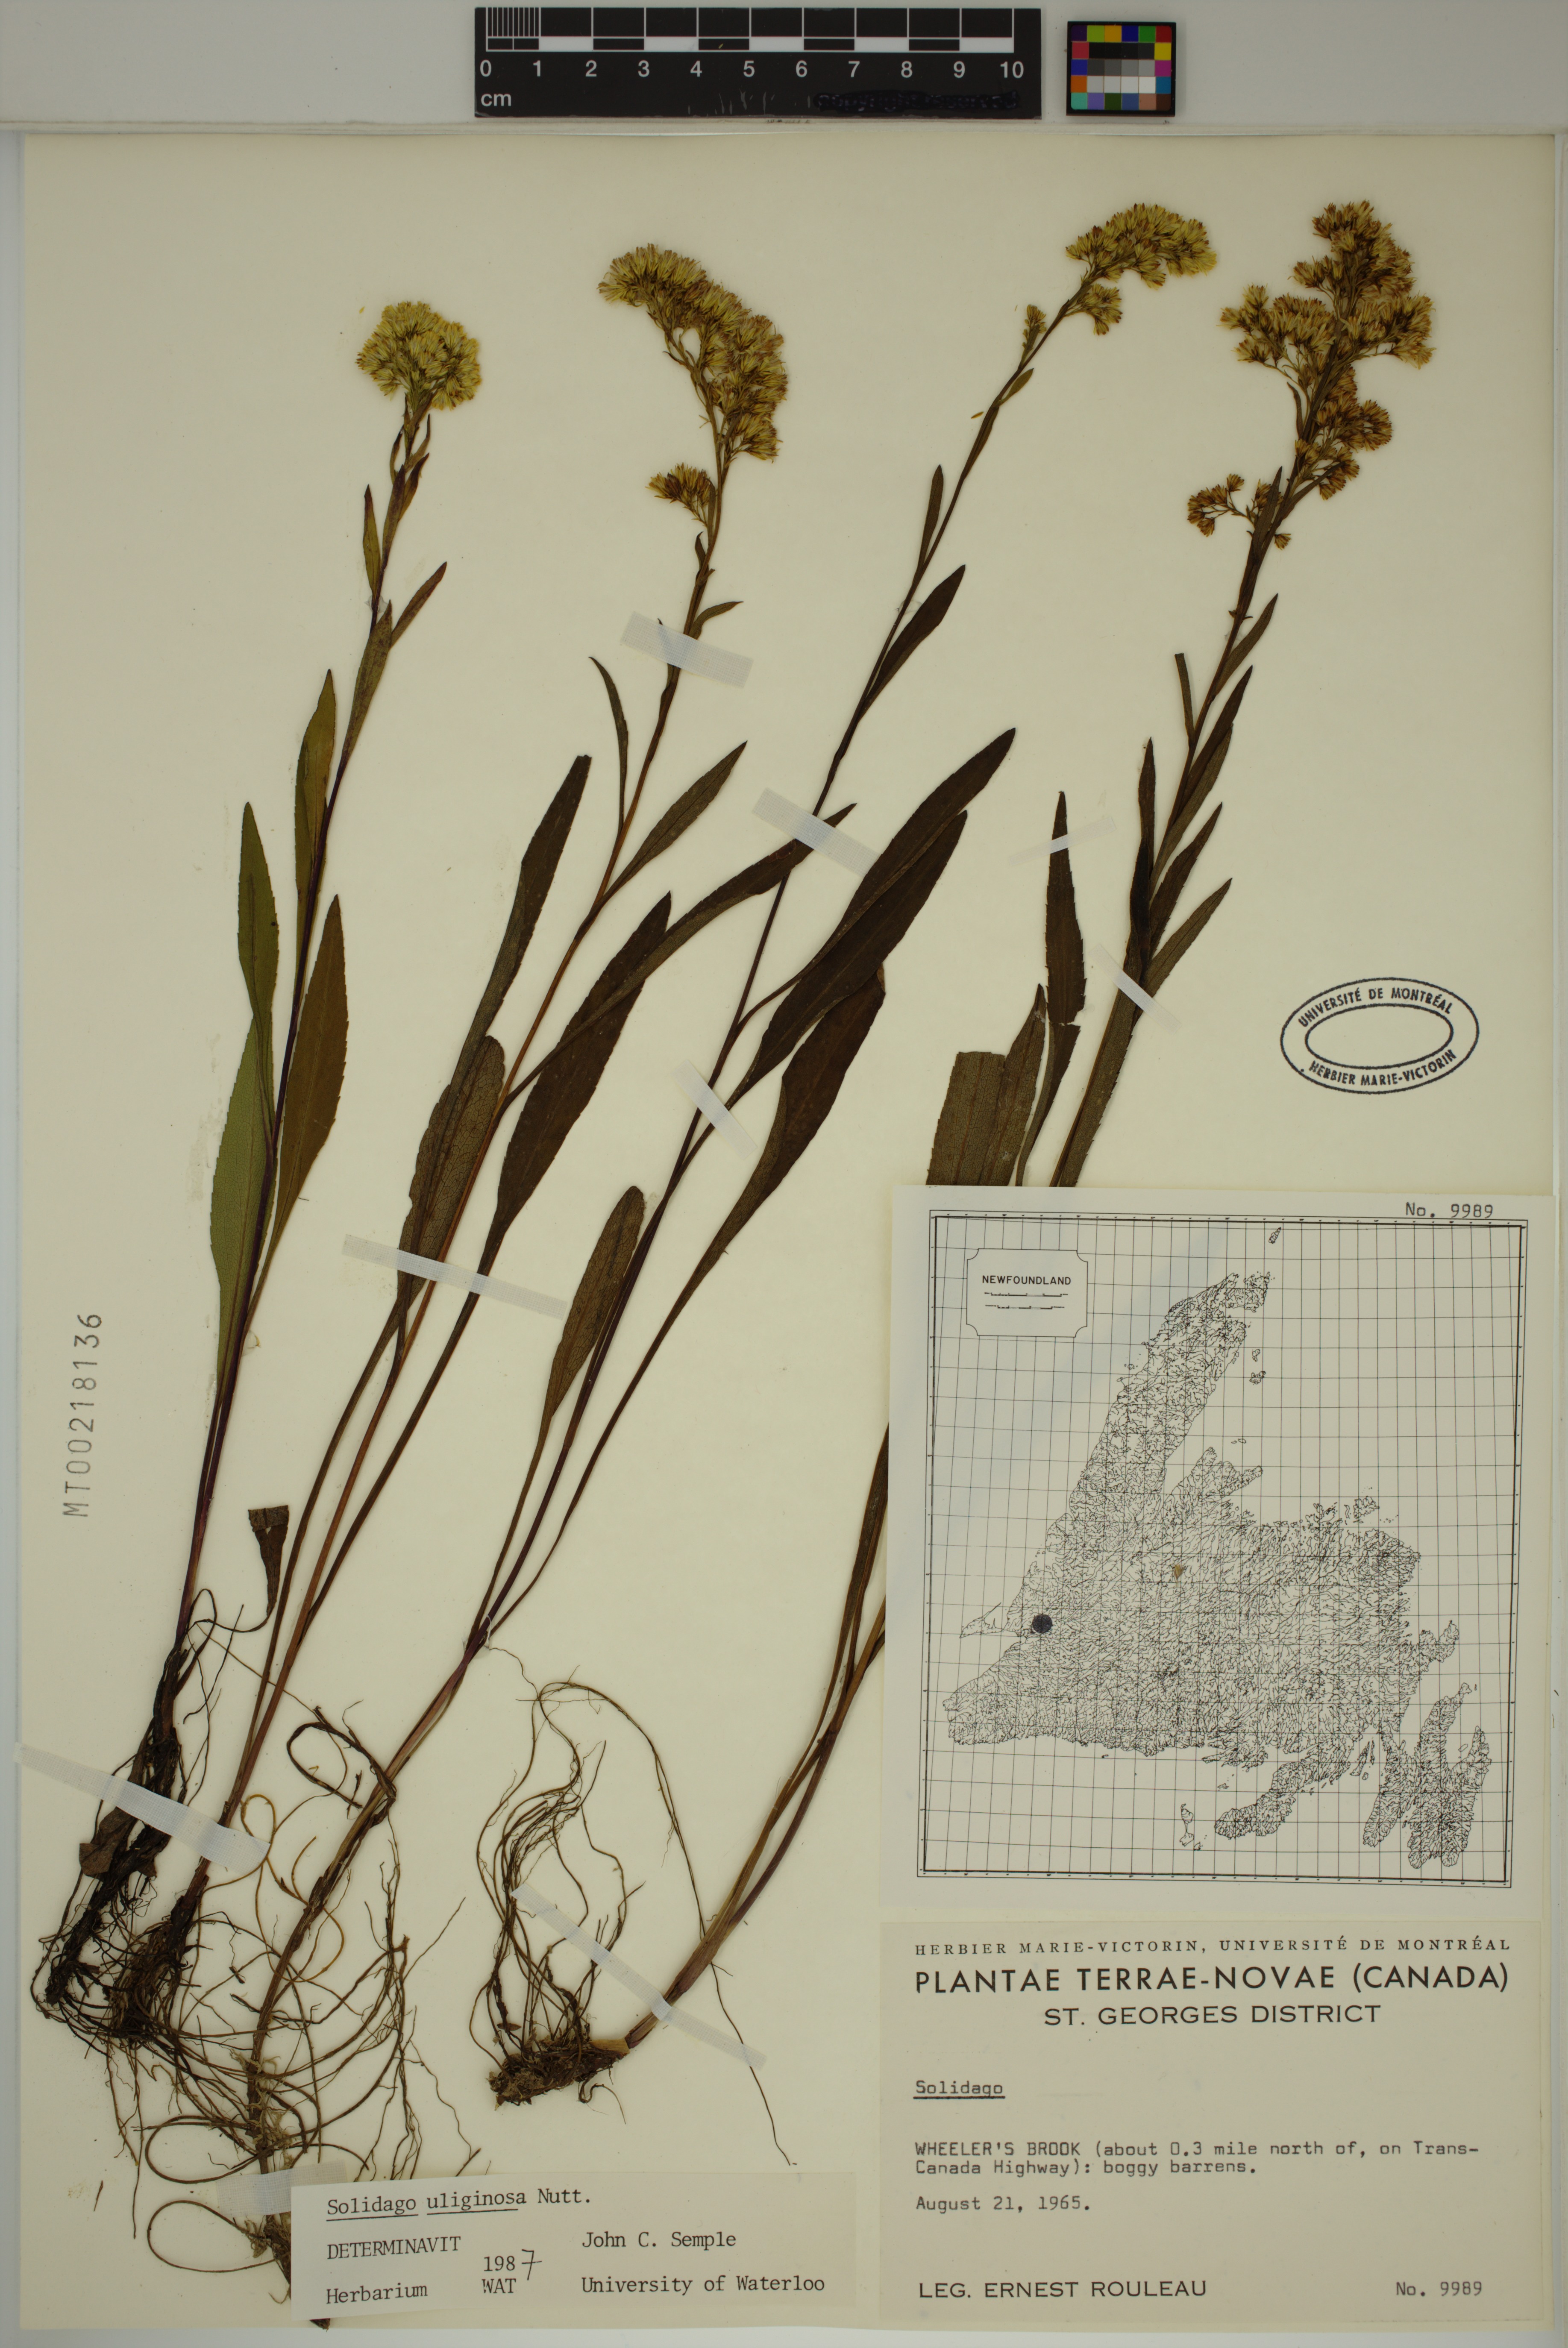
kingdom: Plantae
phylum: Tracheophyta
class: Magnoliopsida
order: Asterales
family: Asteraceae
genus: Solidago
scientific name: Solidago uliginosa
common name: Bog goldenrod
